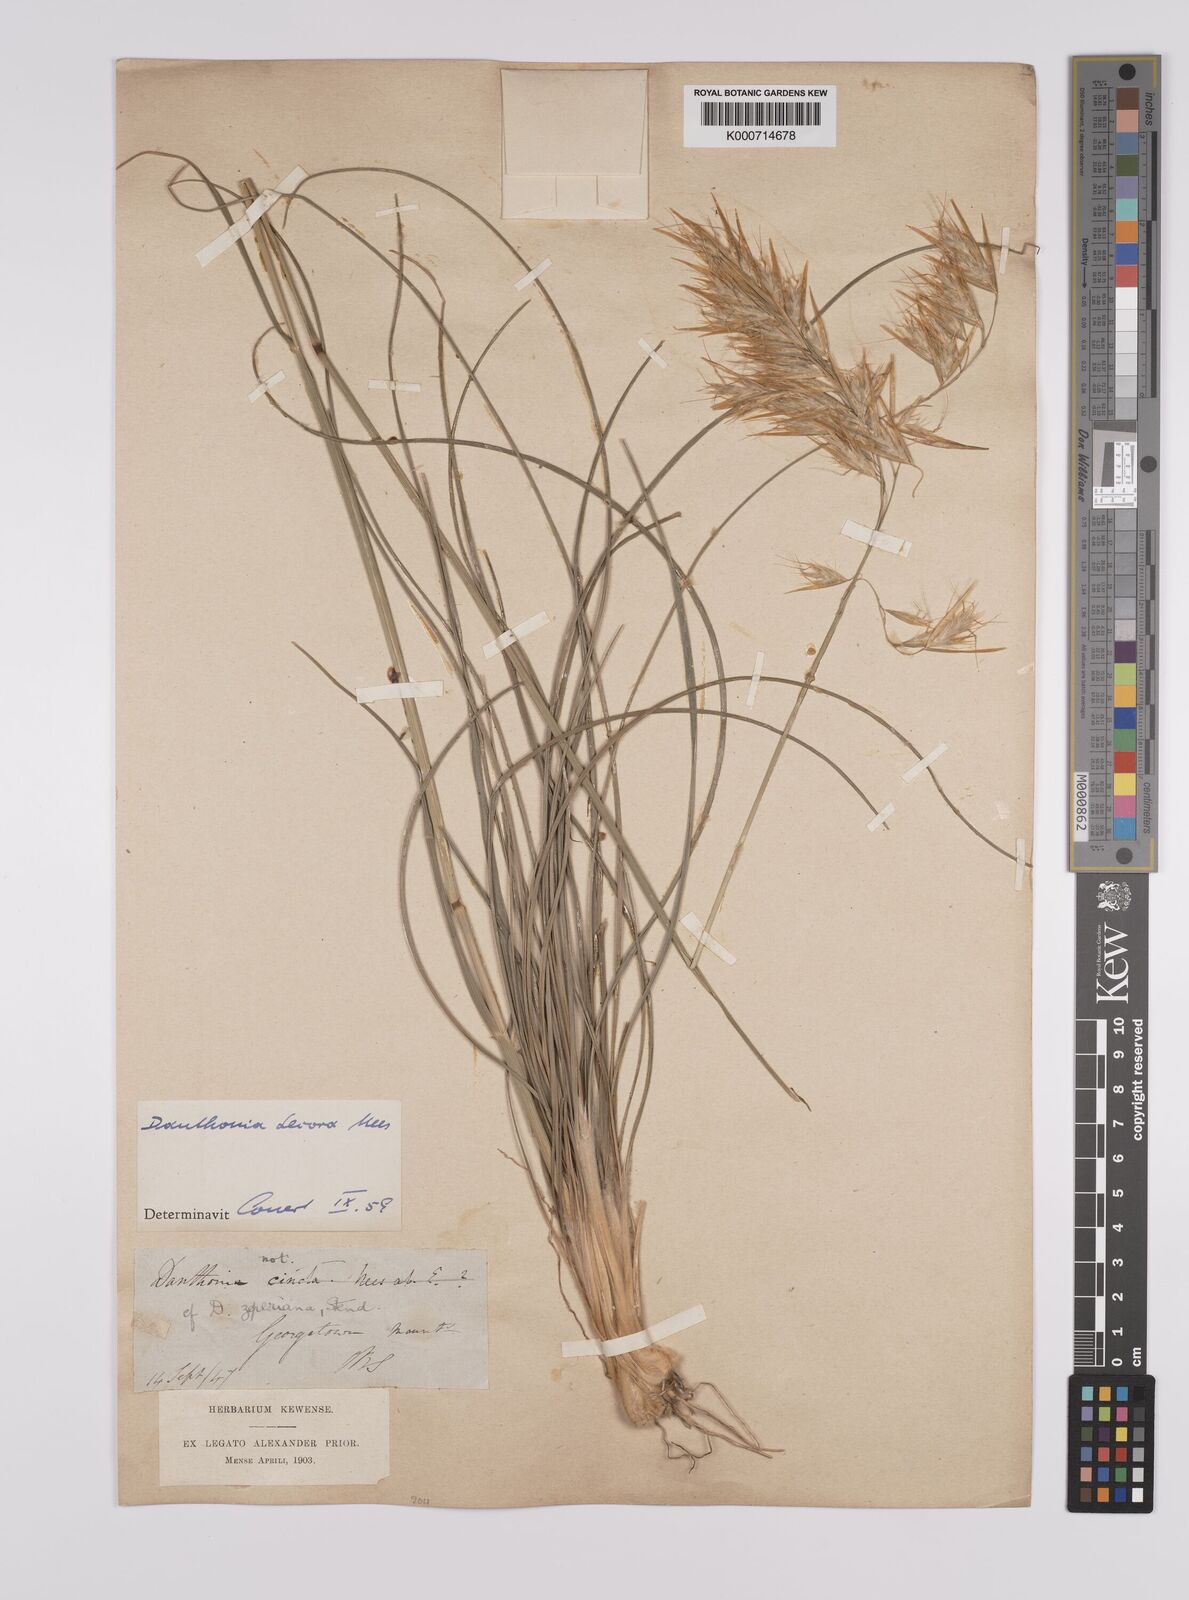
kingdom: Plantae
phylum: Tracheophyta
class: Liliopsida
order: Poales
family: Poaceae
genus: Rytidosperma
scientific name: Rytidosperma
